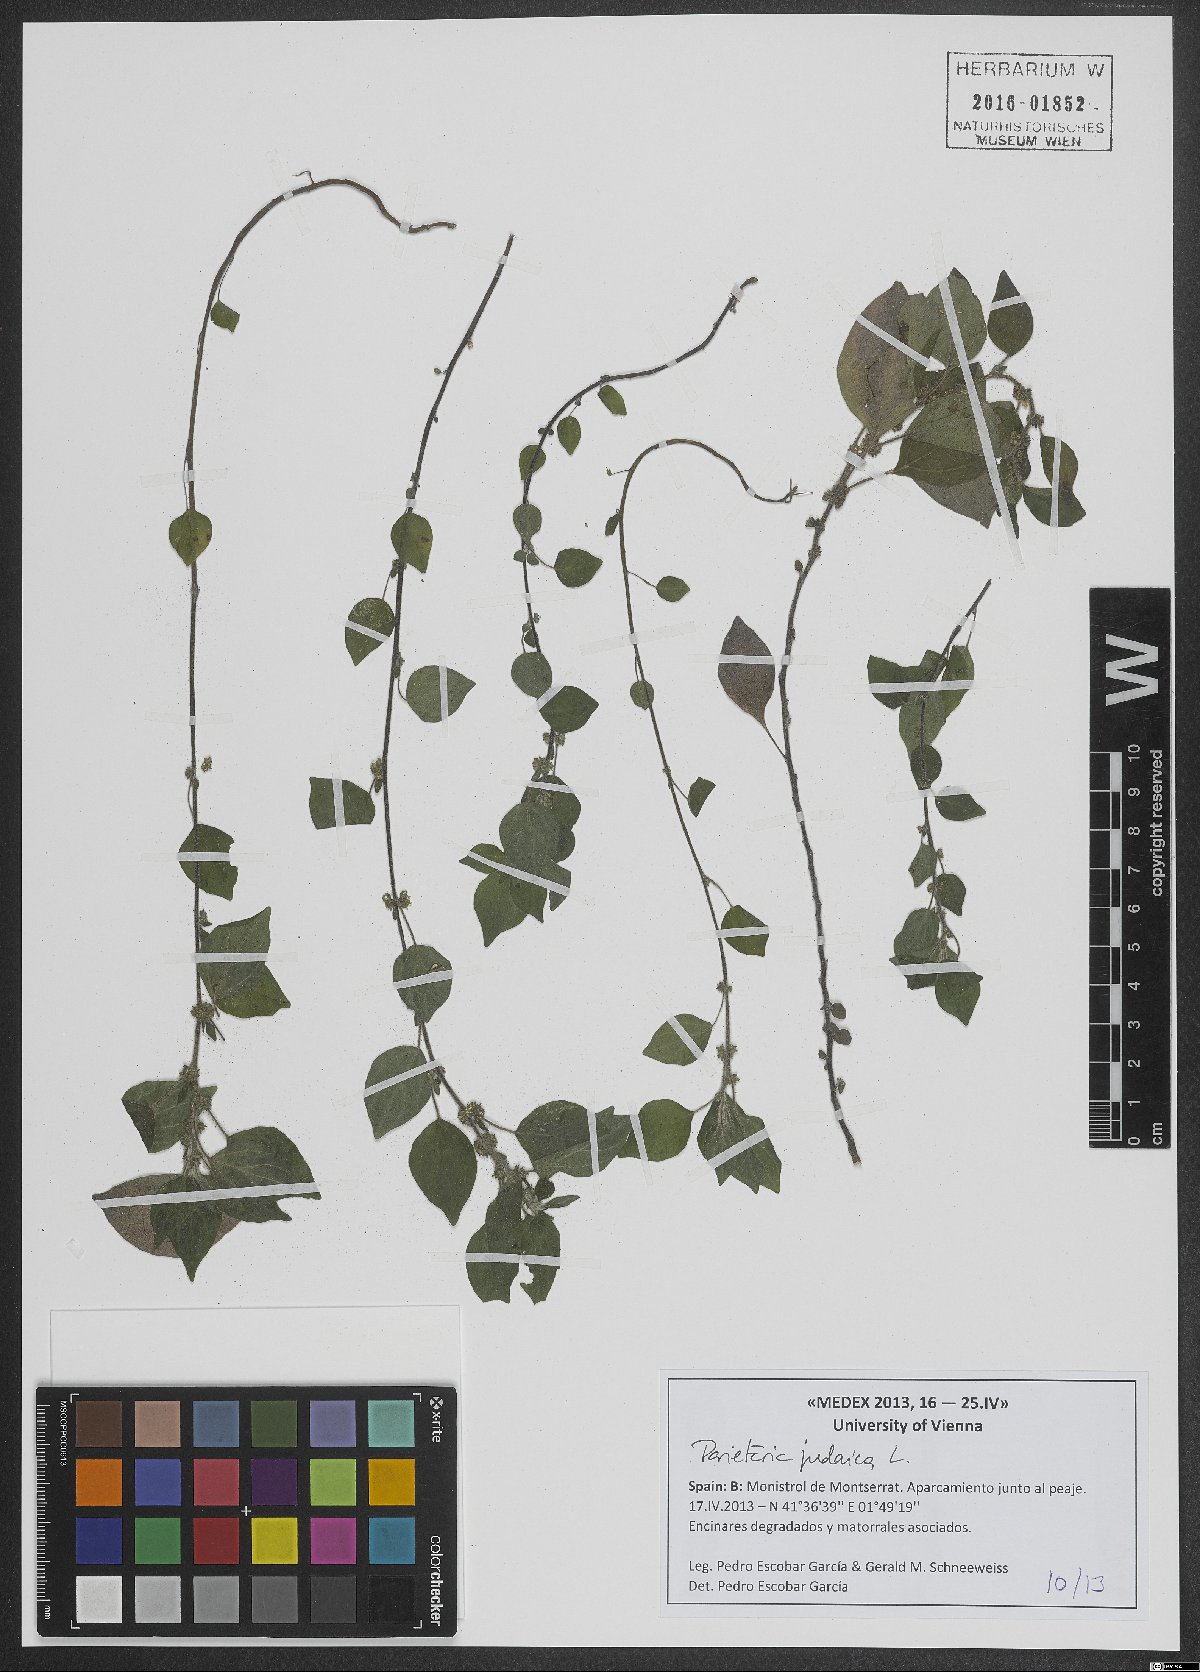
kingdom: Plantae
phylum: Tracheophyta
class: Magnoliopsida
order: Rosales
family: Urticaceae
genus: Parietaria
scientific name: Parietaria judaica
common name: Pellitory-of-the-wall
